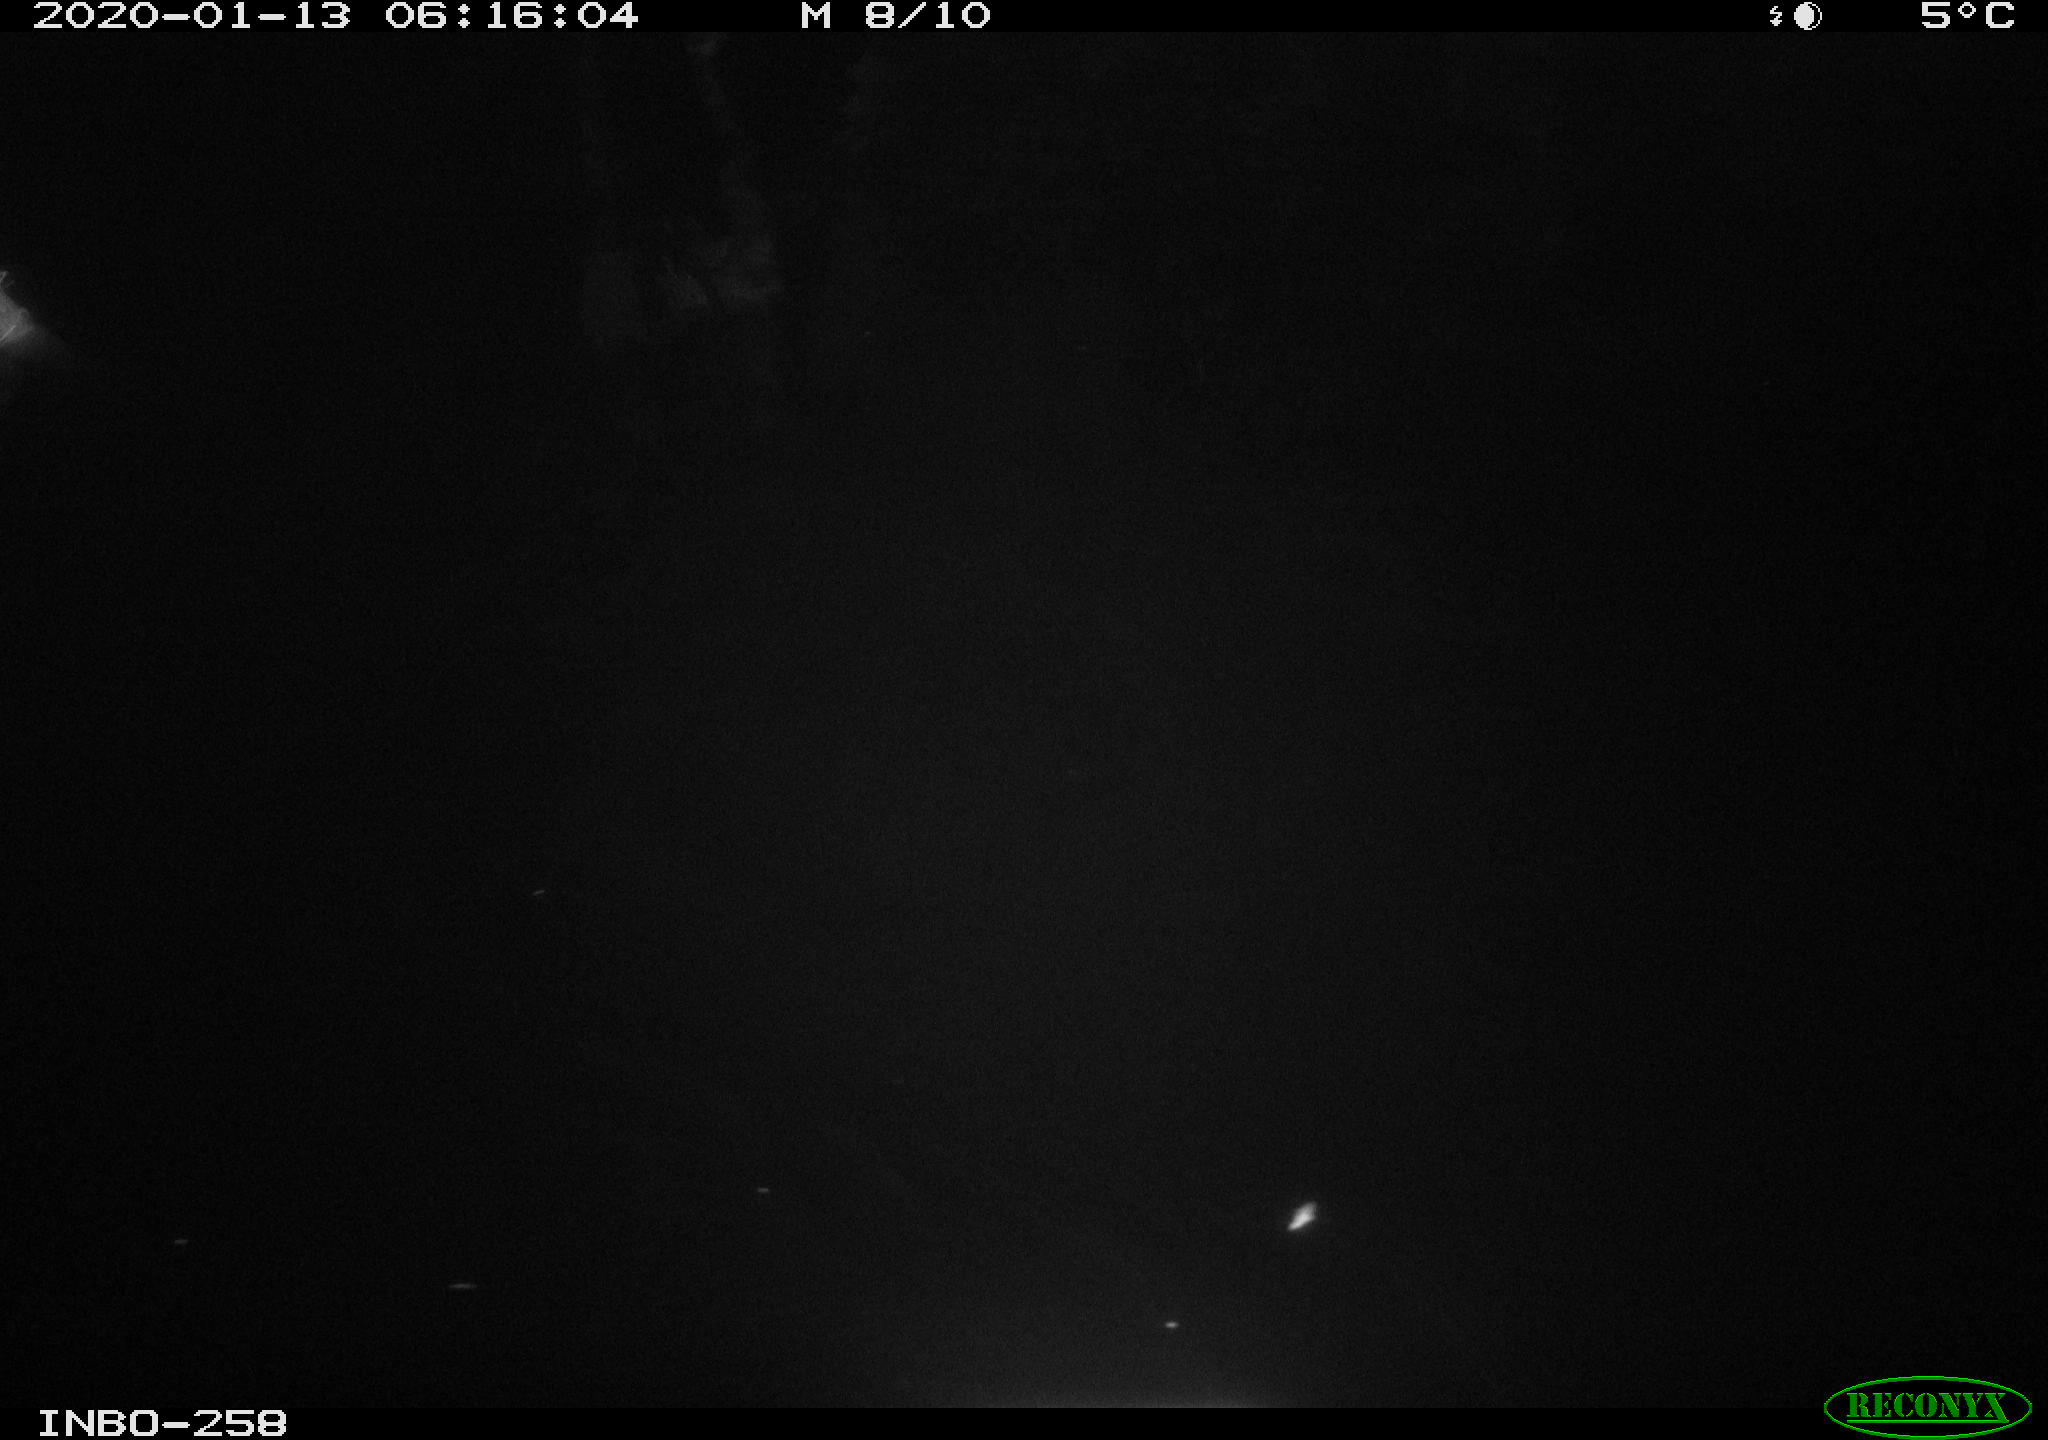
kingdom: Animalia
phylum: Chordata
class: Aves
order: Anseriformes
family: Anatidae
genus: Anas
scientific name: Anas platyrhynchos
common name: Mallard
